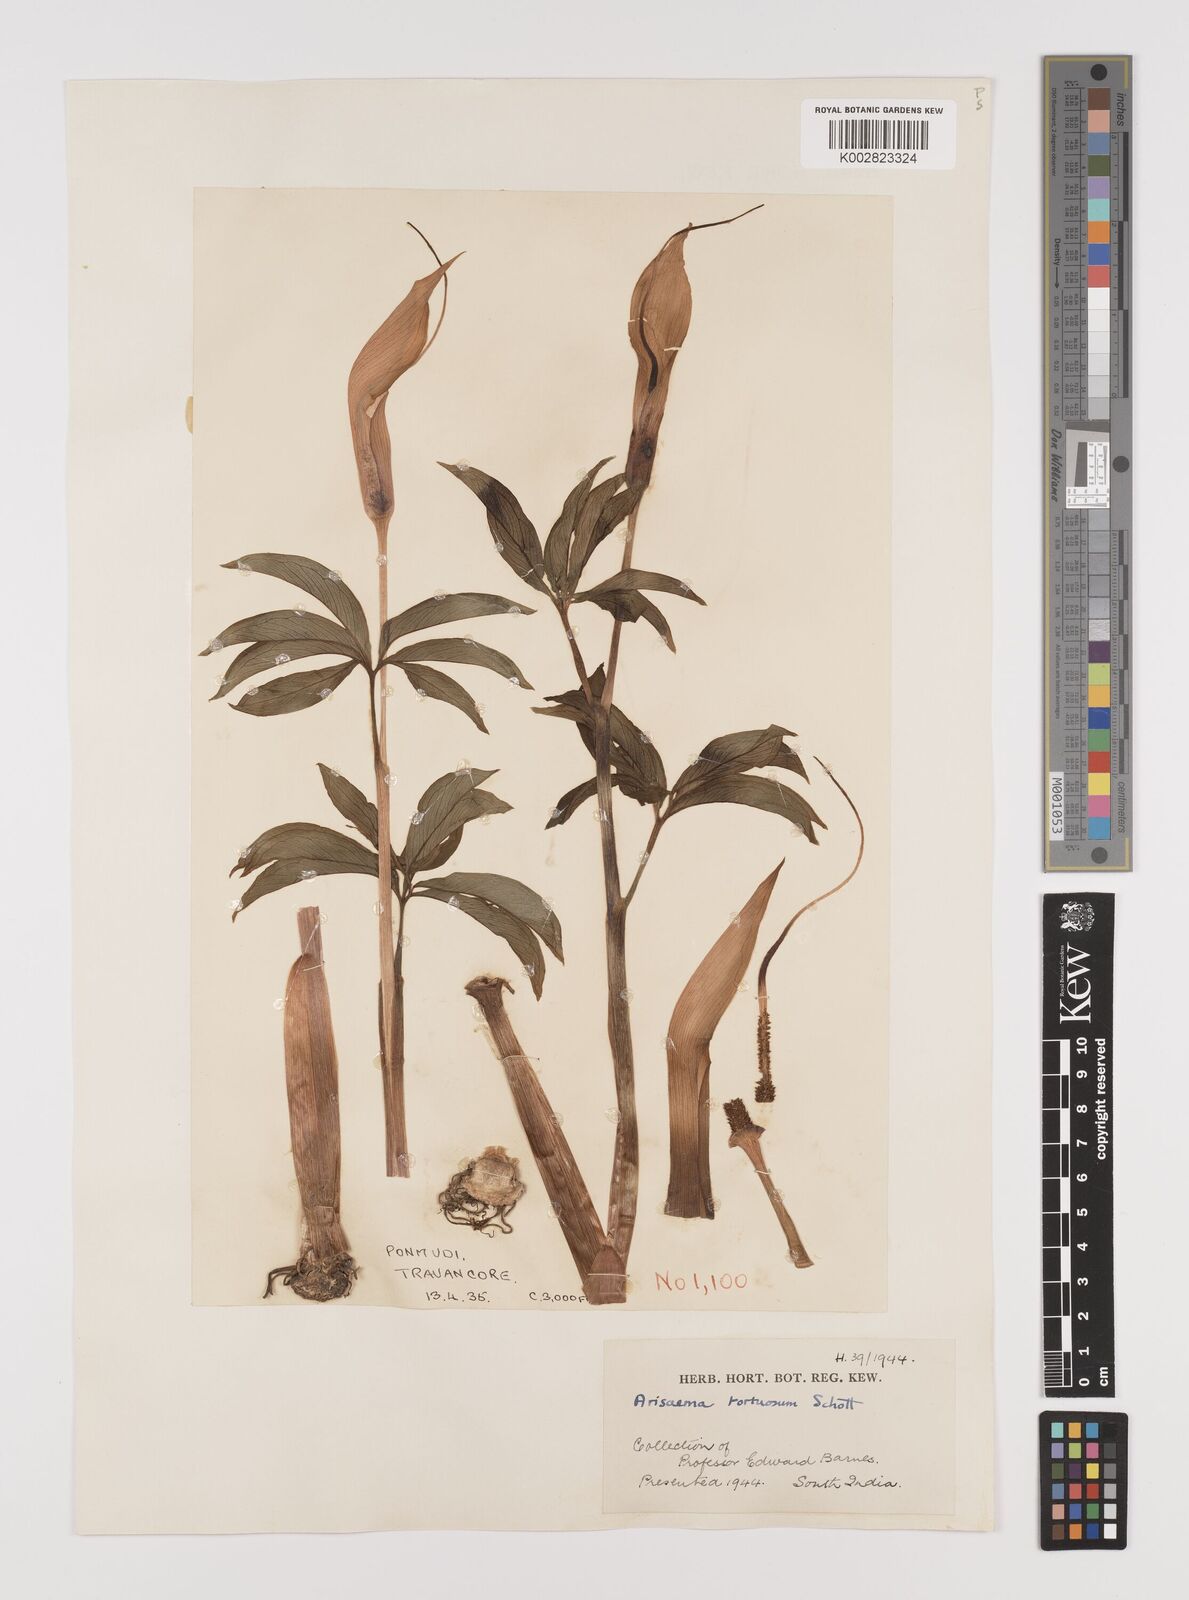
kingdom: Plantae
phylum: Tracheophyta
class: Liliopsida
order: Alismatales
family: Araceae
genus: Arisaema
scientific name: Arisaema tortuosum
